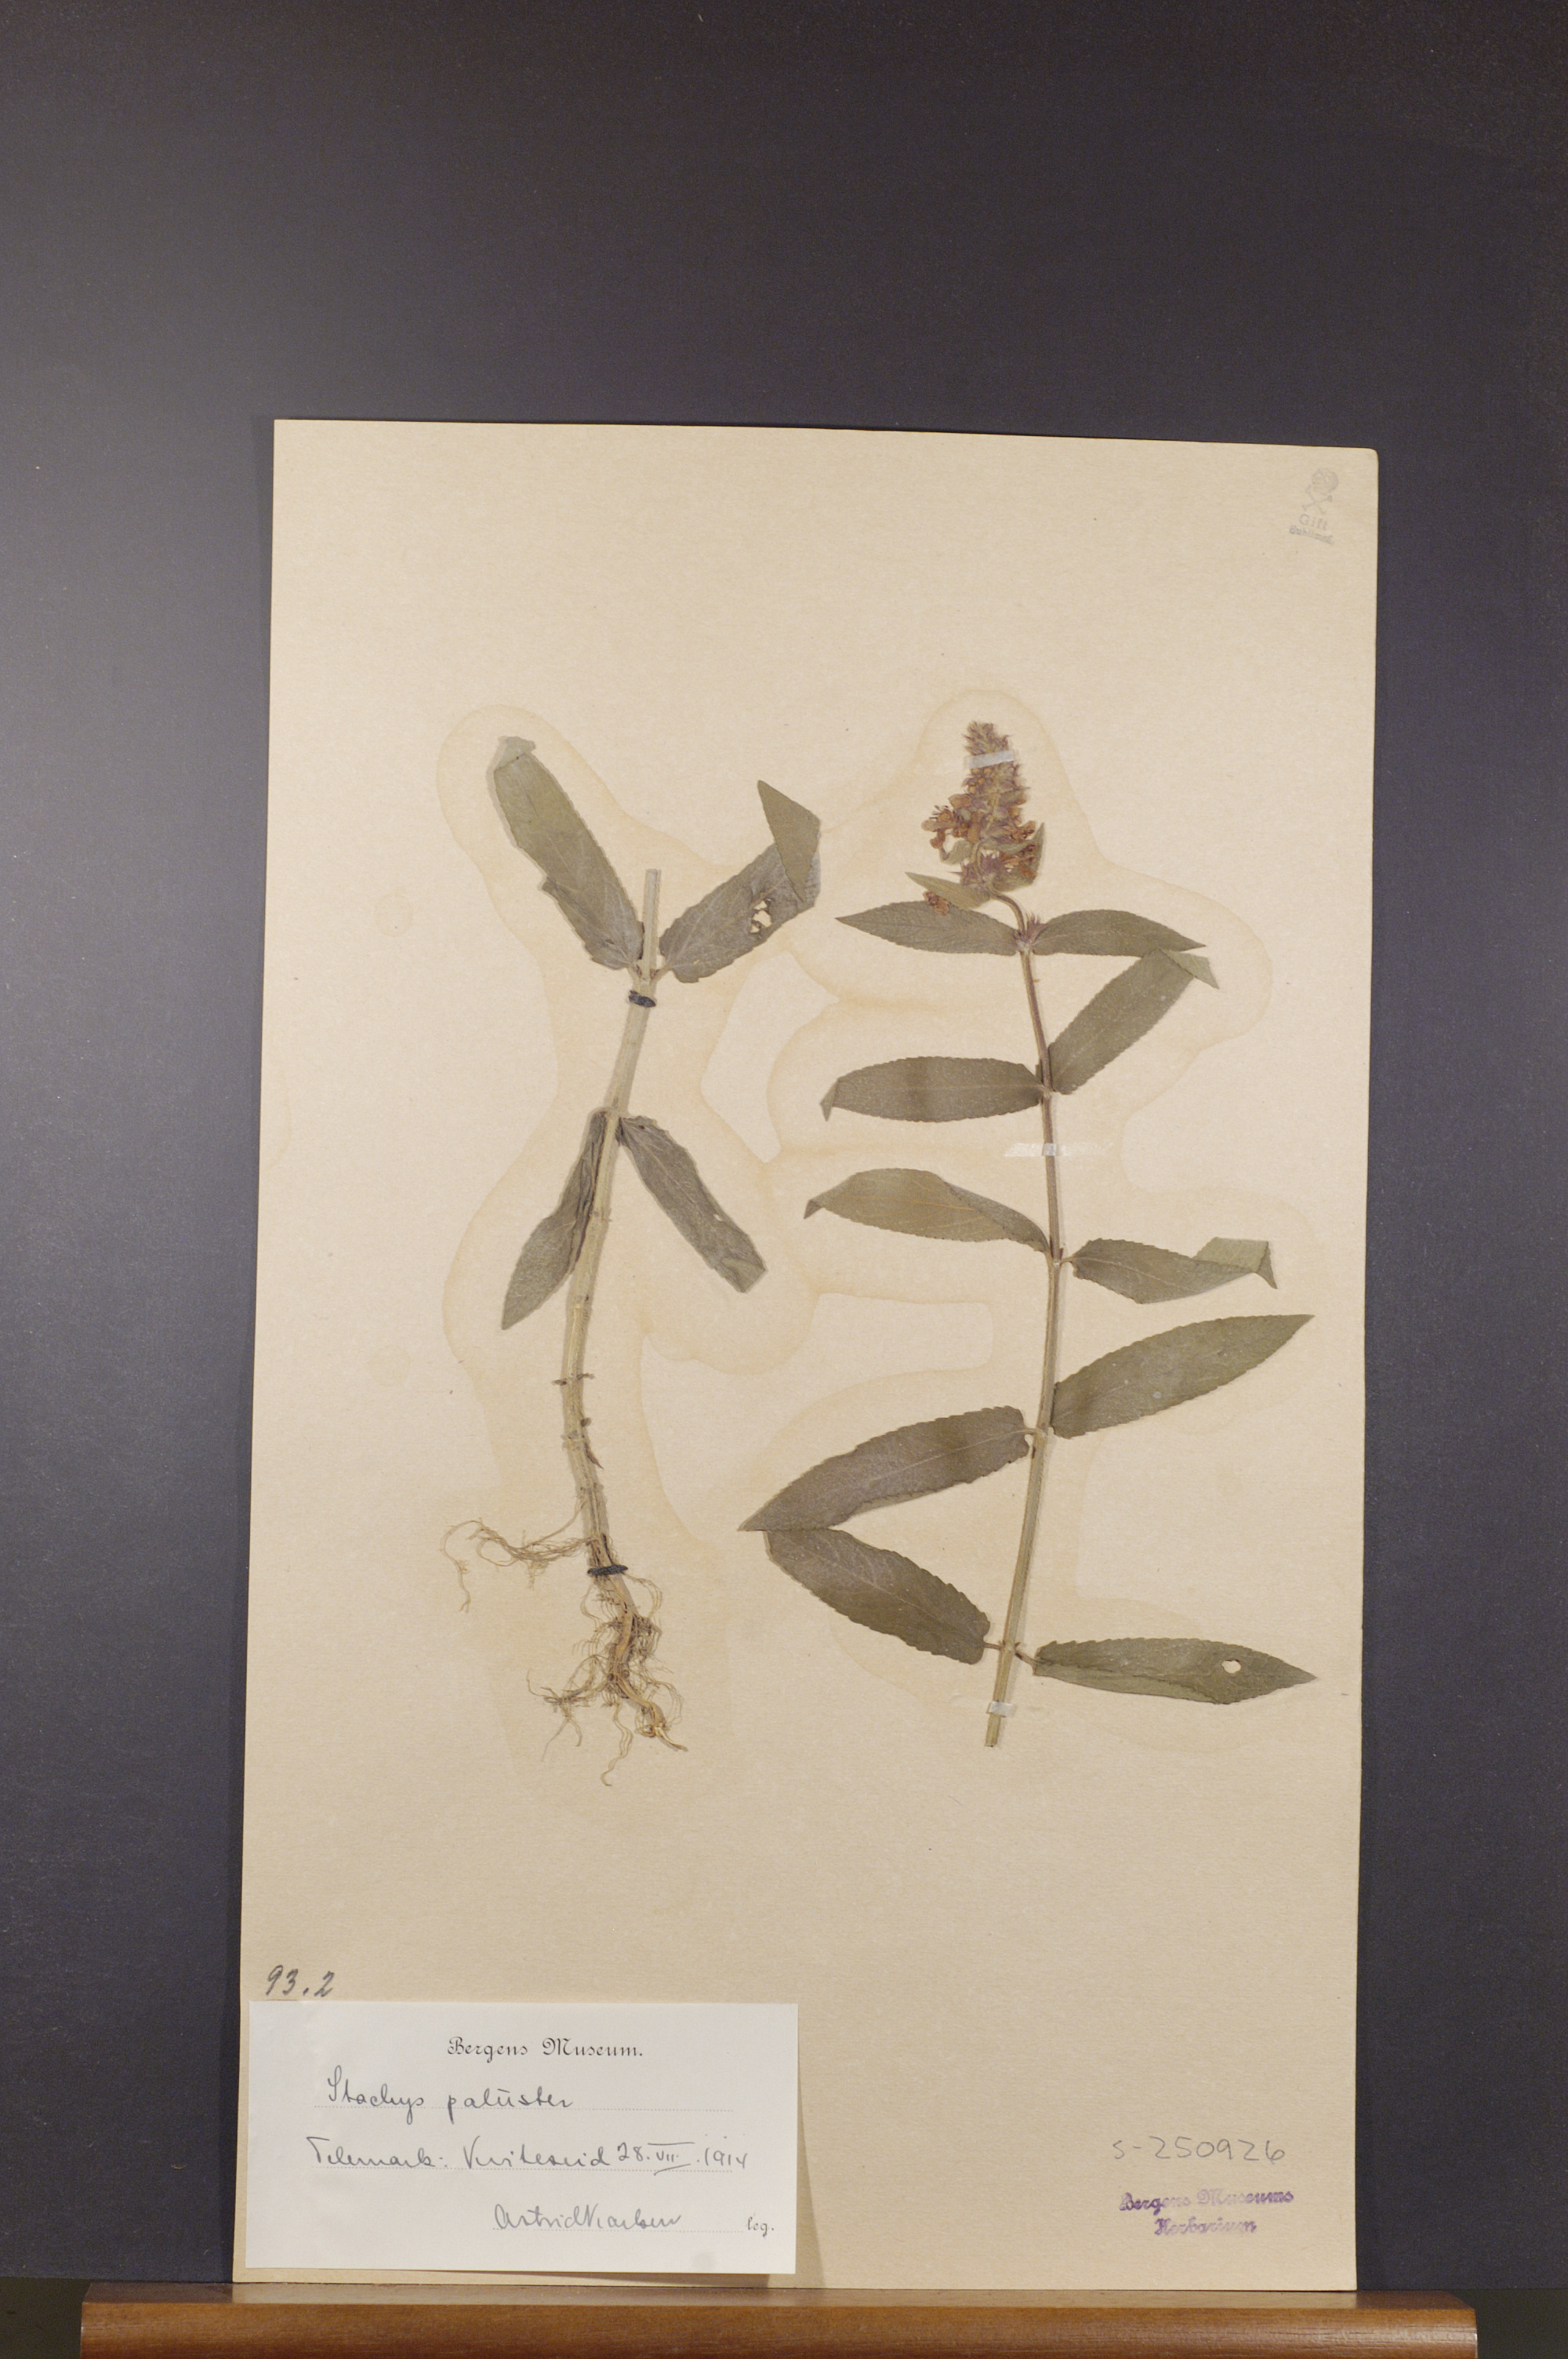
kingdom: Plantae
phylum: Tracheophyta
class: Magnoliopsida
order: Lamiales
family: Lamiaceae
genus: Stachys
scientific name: Stachys palustris
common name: Marsh woundwort
